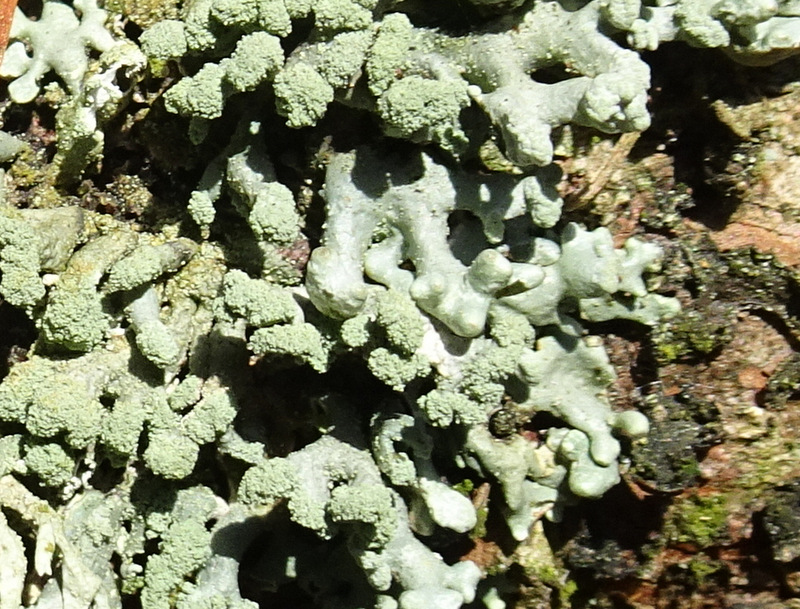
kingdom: Fungi
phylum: Ascomycota
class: Lecanoromycetes
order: Lecanorales
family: Parmeliaceae
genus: Hypogymnia
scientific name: Hypogymnia tubulosa
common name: finger-kvistlav
